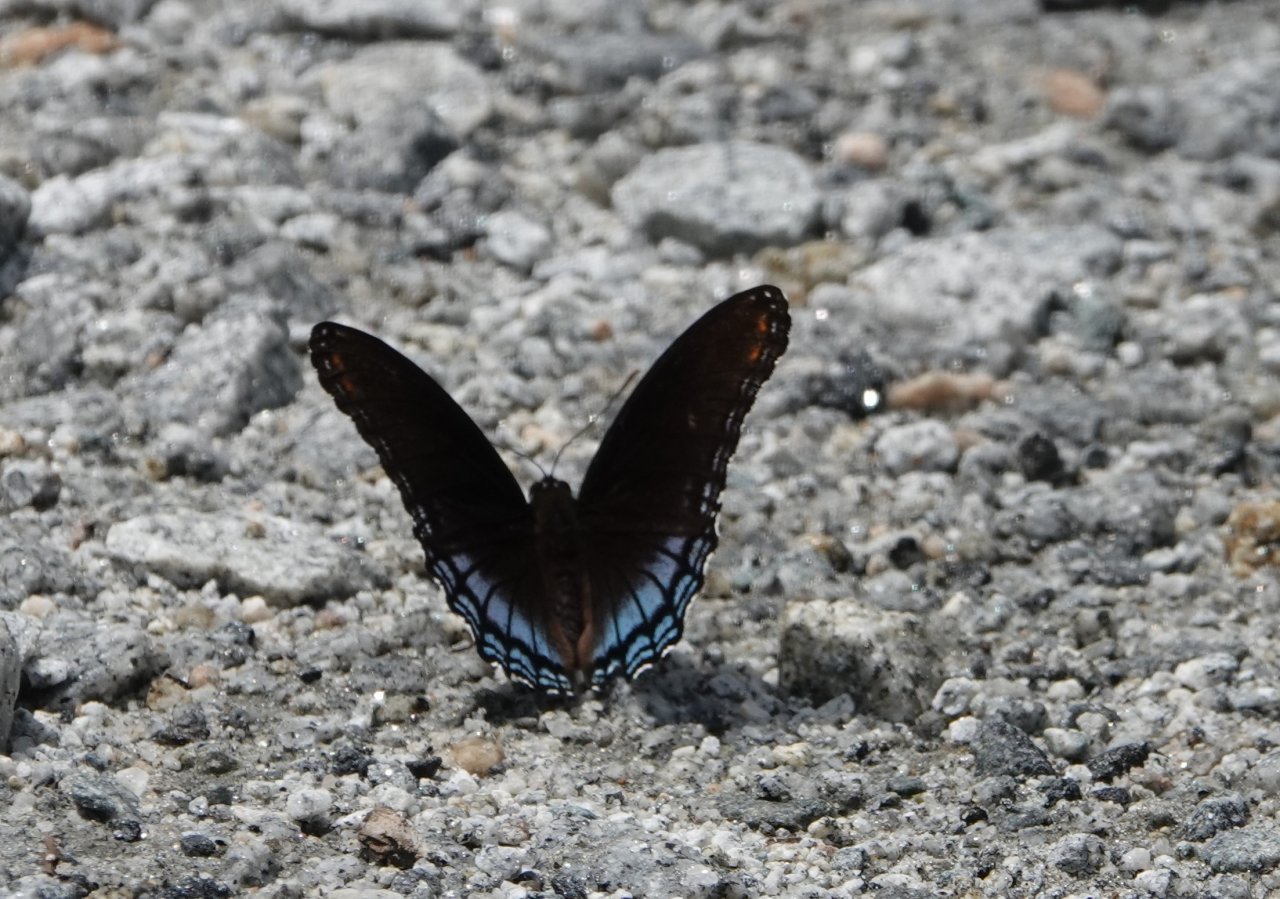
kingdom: Animalia
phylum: Arthropoda
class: Insecta
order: Lepidoptera
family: Nymphalidae
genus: Limenitis
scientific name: Limenitis astyanax
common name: Red-spotted Purple
